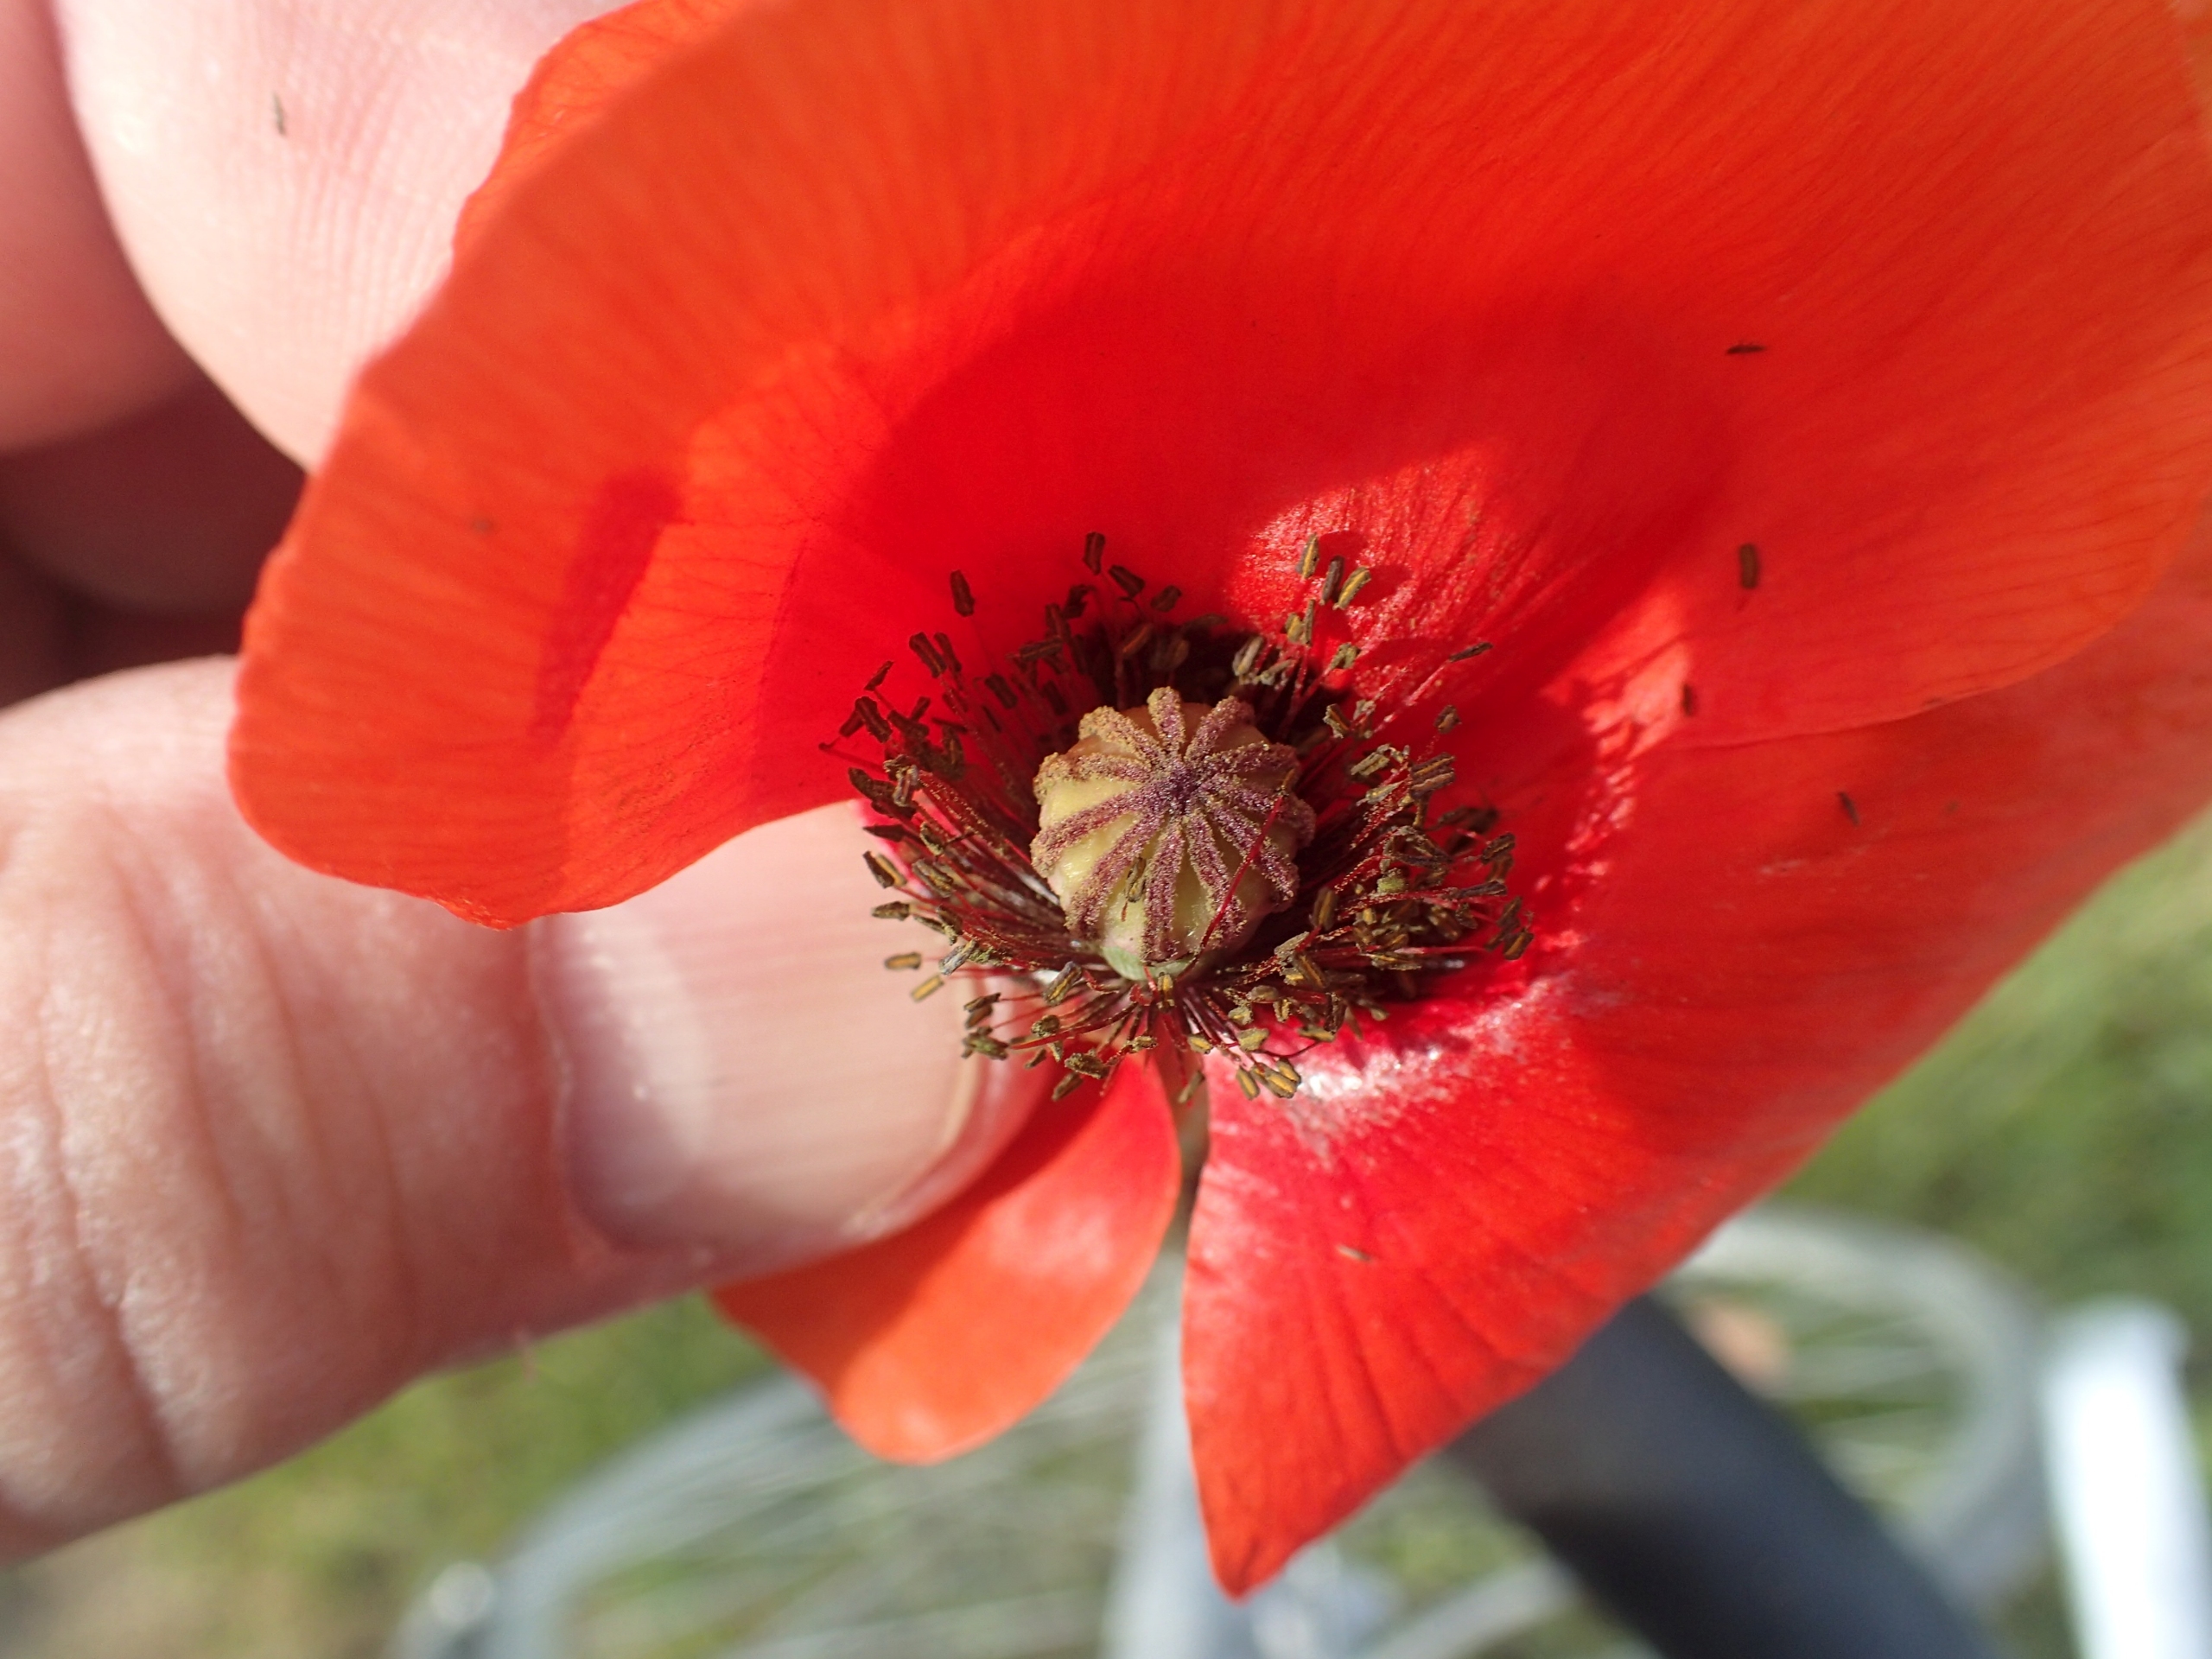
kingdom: Plantae
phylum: Tracheophyta
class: Magnoliopsida
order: Ranunculales
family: Papaveraceae
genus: Papaver
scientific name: Papaver rhoeas
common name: Korn-valmue
